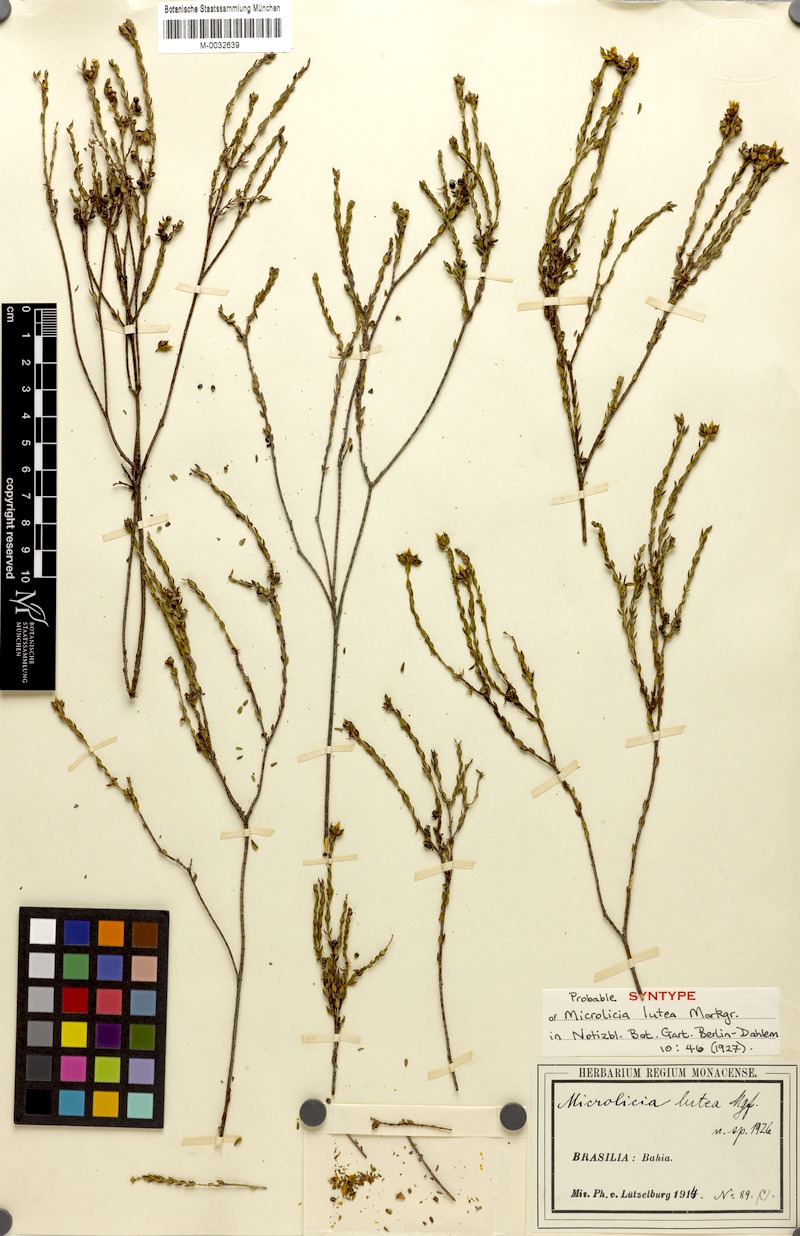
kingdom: Plantae
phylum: Tracheophyta
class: Magnoliopsida
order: Myrtales
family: Melastomataceae
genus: Microlicia
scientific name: Microlicia lutea
